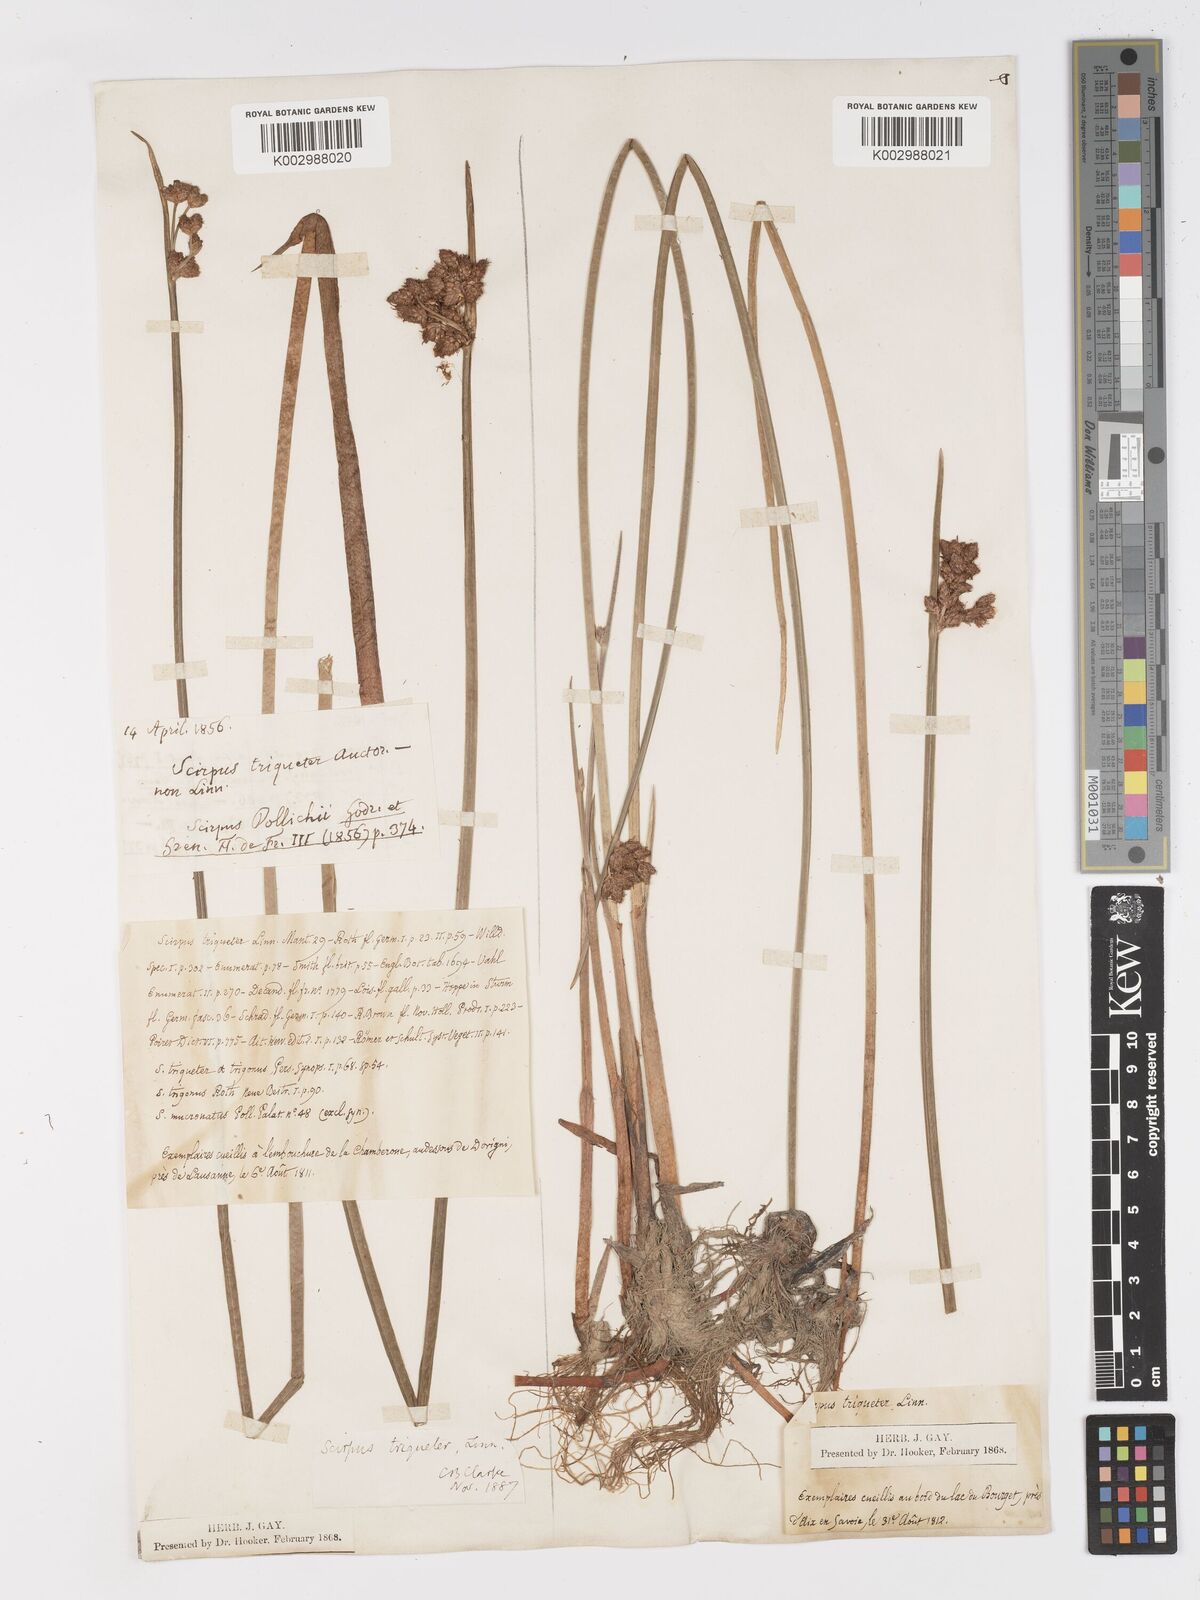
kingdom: Plantae
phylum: Tracheophyta
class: Liliopsida
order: Poales
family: Cyperaceae
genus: Schoenoplectus
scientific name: Schoenoplectus triqueter
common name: Triangular club-rush
